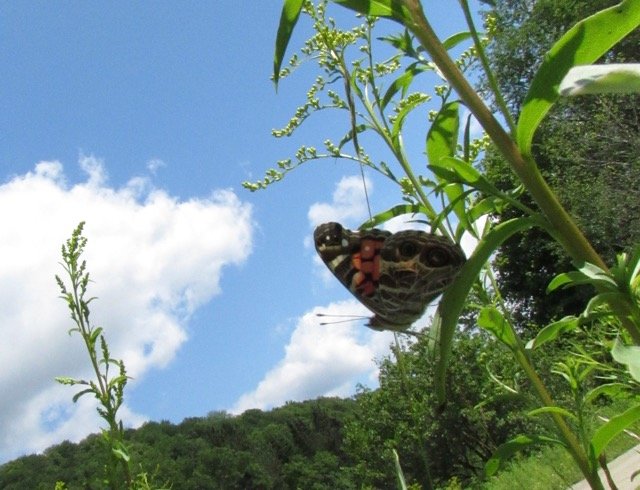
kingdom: Animalia
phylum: Arthropoda
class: Insecta
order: Lepidoptera
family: Nymphalidae
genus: Vanessa
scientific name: Vanessa virginiensis
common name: American Lady
